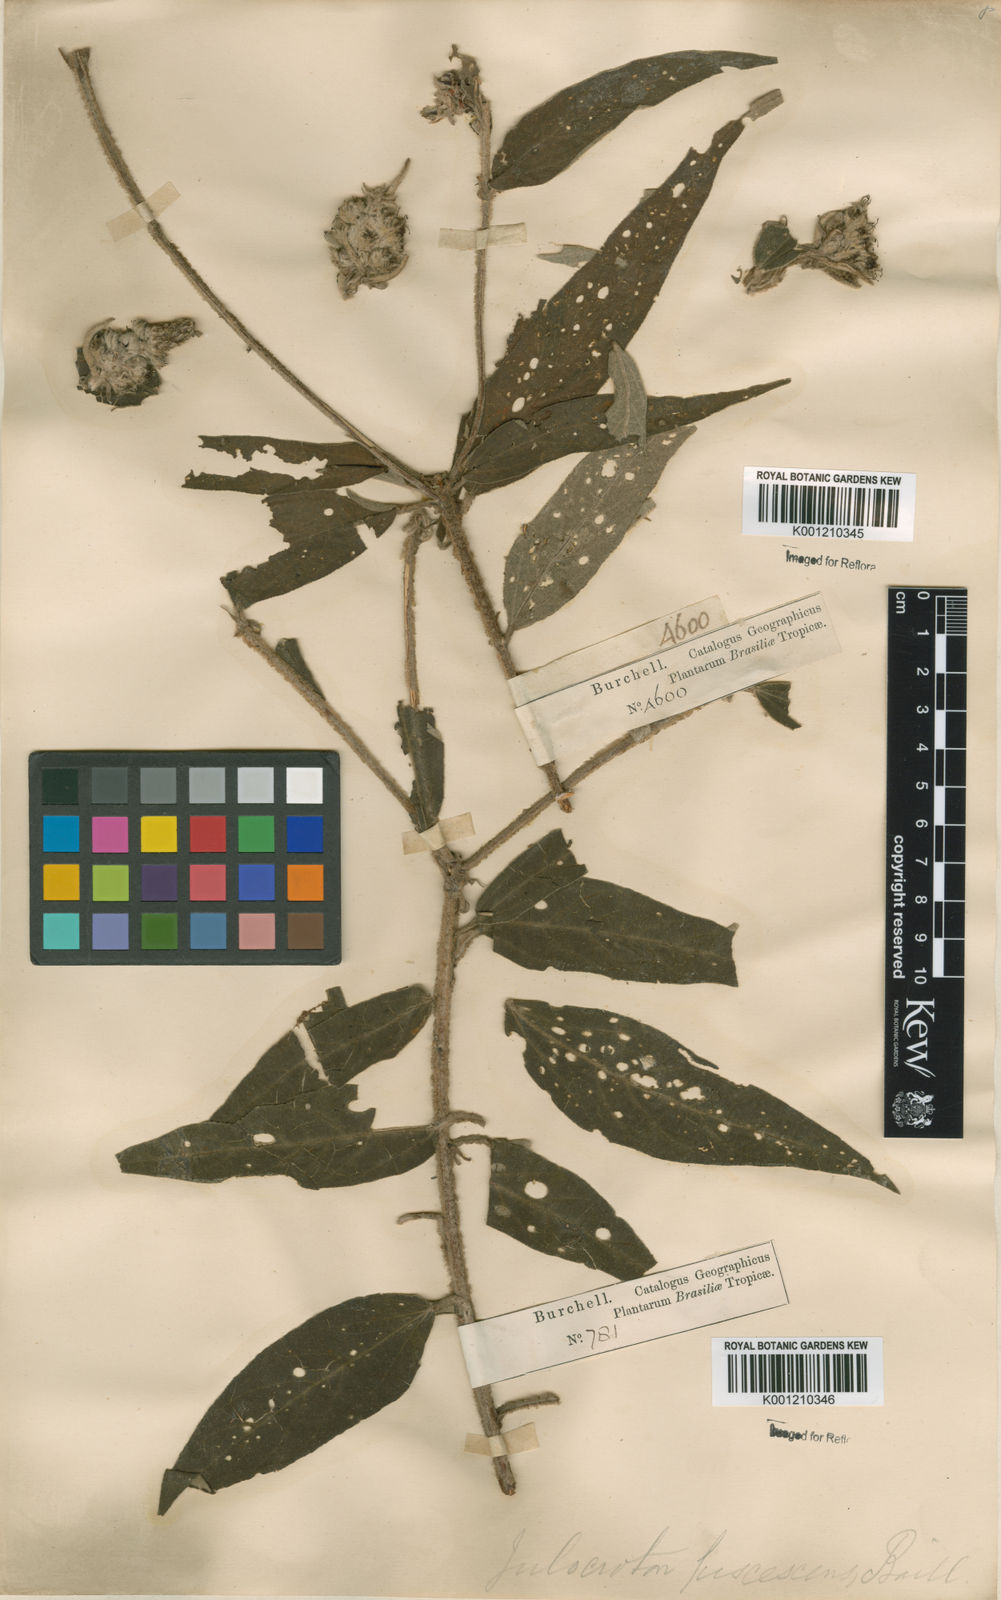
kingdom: Plantae
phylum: Tracheophyta
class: Magnoliopsida
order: Malpighiales
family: Euphorbiaceae
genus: Croton
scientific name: Croton gnaphaloides
